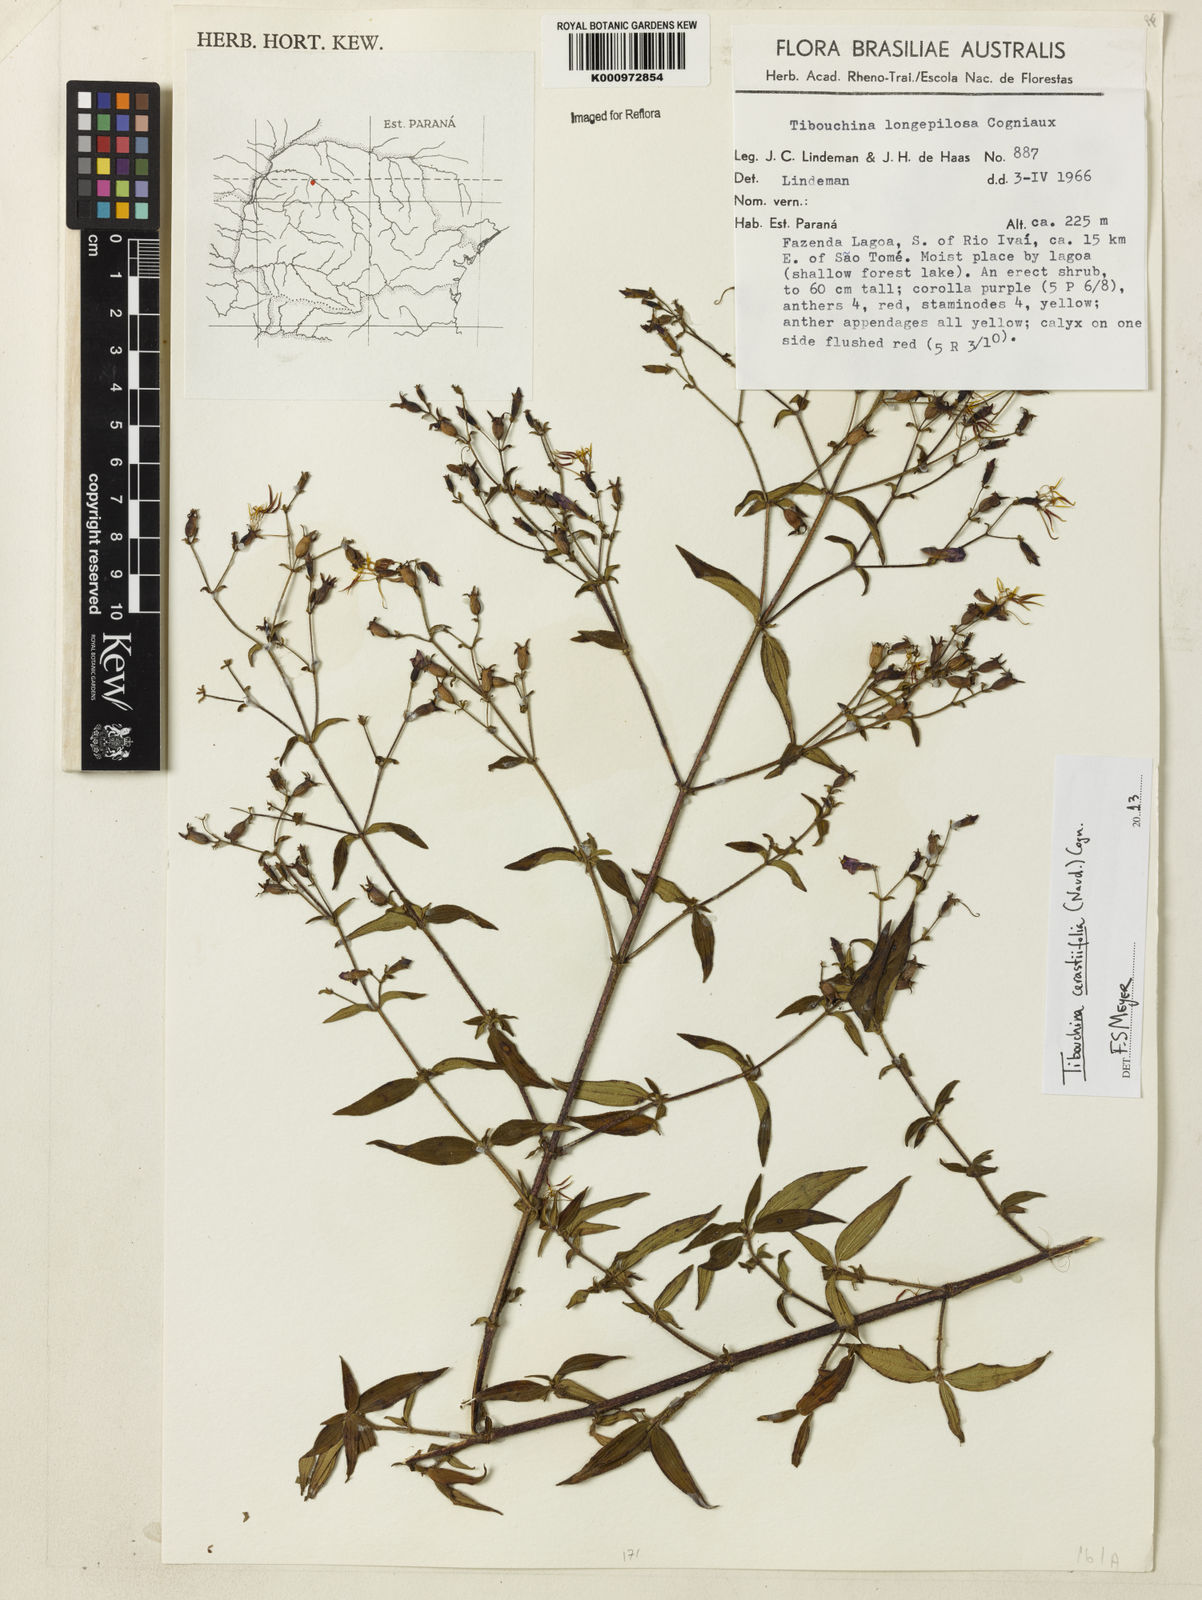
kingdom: Plantae
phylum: Tracheophyta
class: Magnoliopsida
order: Myrtales
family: Melastomataceae
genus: Chaetogastra
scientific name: Chaetogastra cerastifolia
